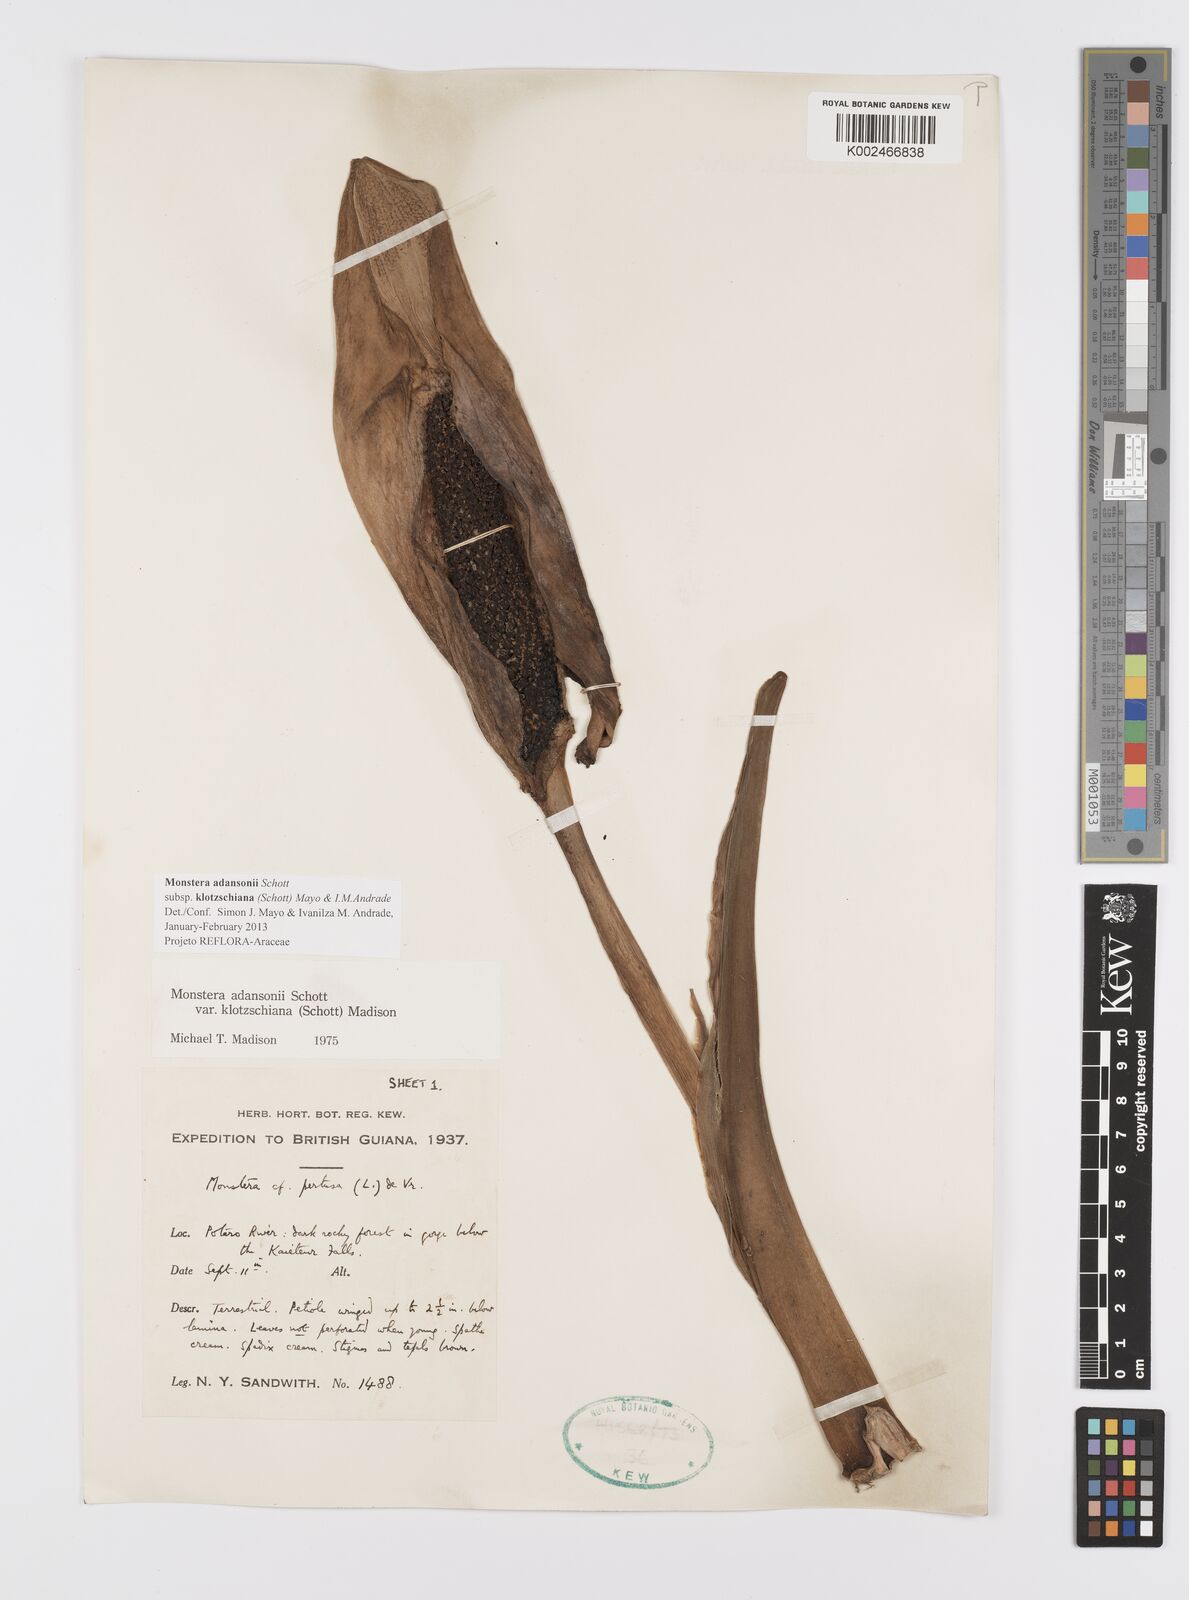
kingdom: Plantae
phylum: Tracheophyta
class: Liliopsida
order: Alismatales
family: Araceae
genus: Monstera
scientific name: Monstera adansonii
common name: Tarovine
